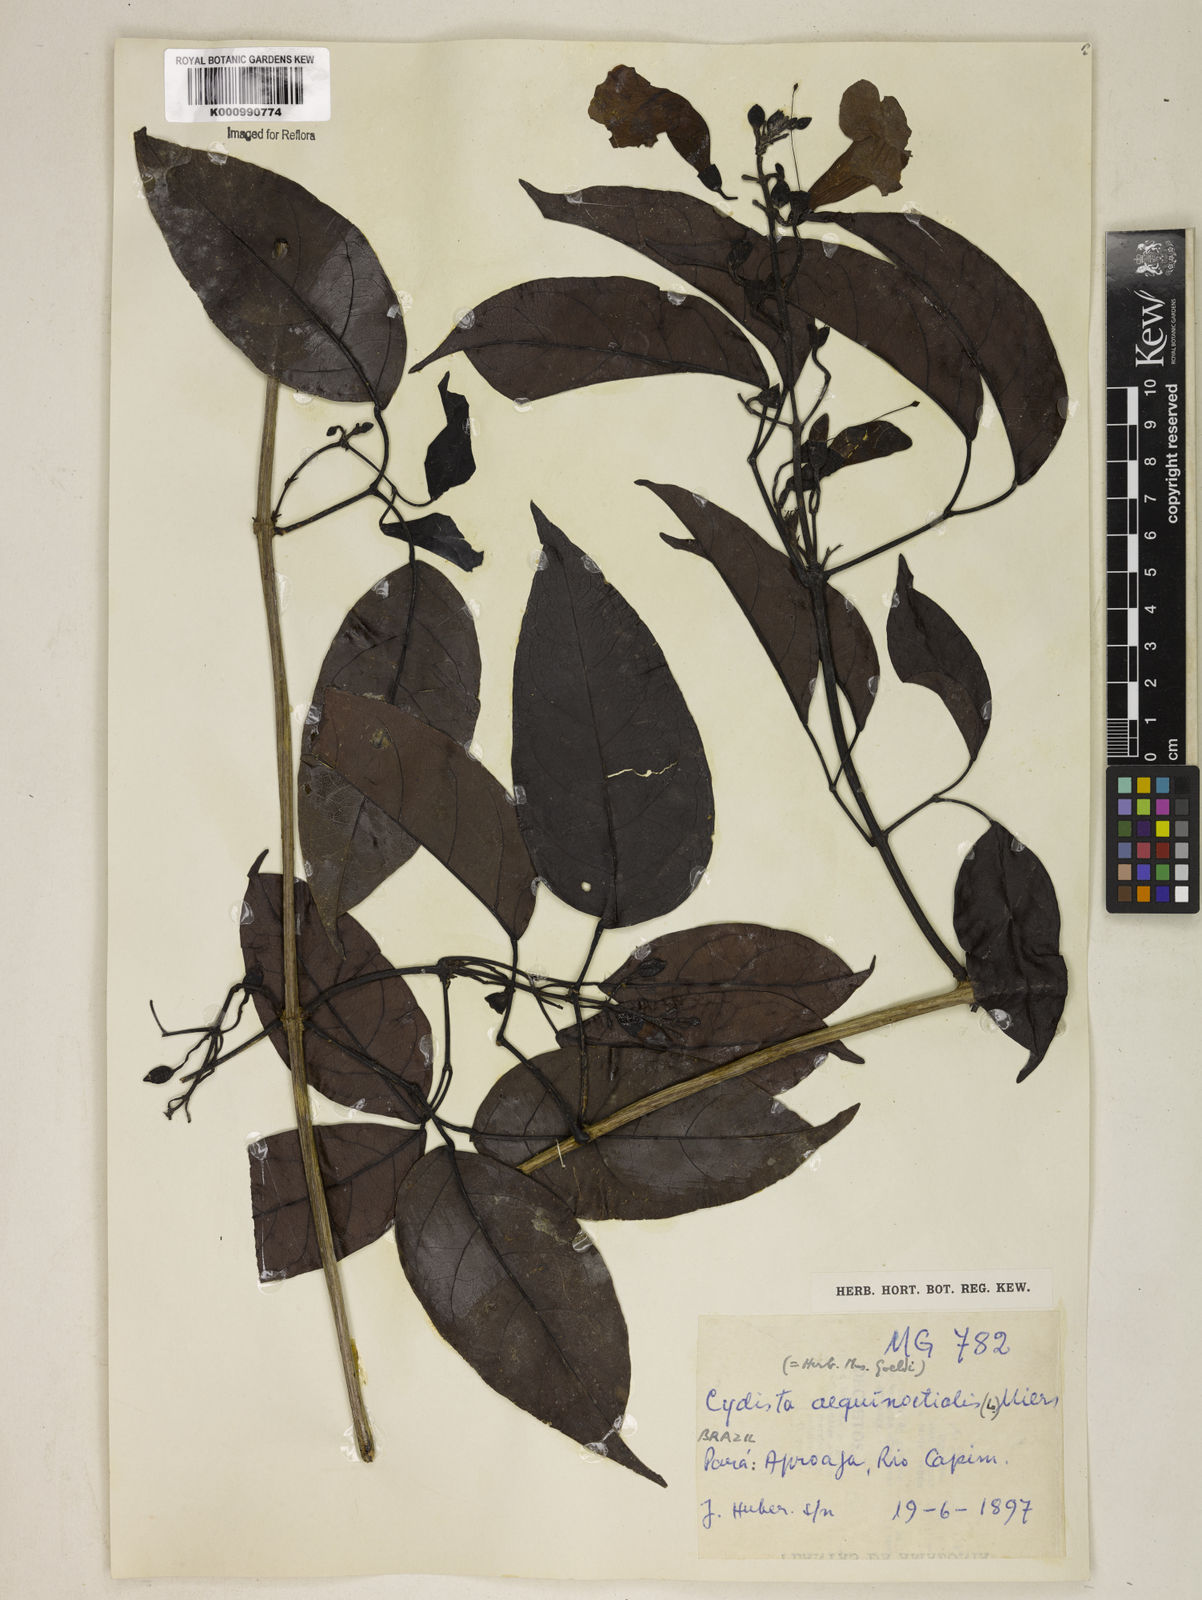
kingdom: Plantae
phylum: Tracheophyta
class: Magnoliopsida
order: Lamiales
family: Bignoniaceae
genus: Bignonia
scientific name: Bignonia aequinoctialis
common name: Garlicvine
